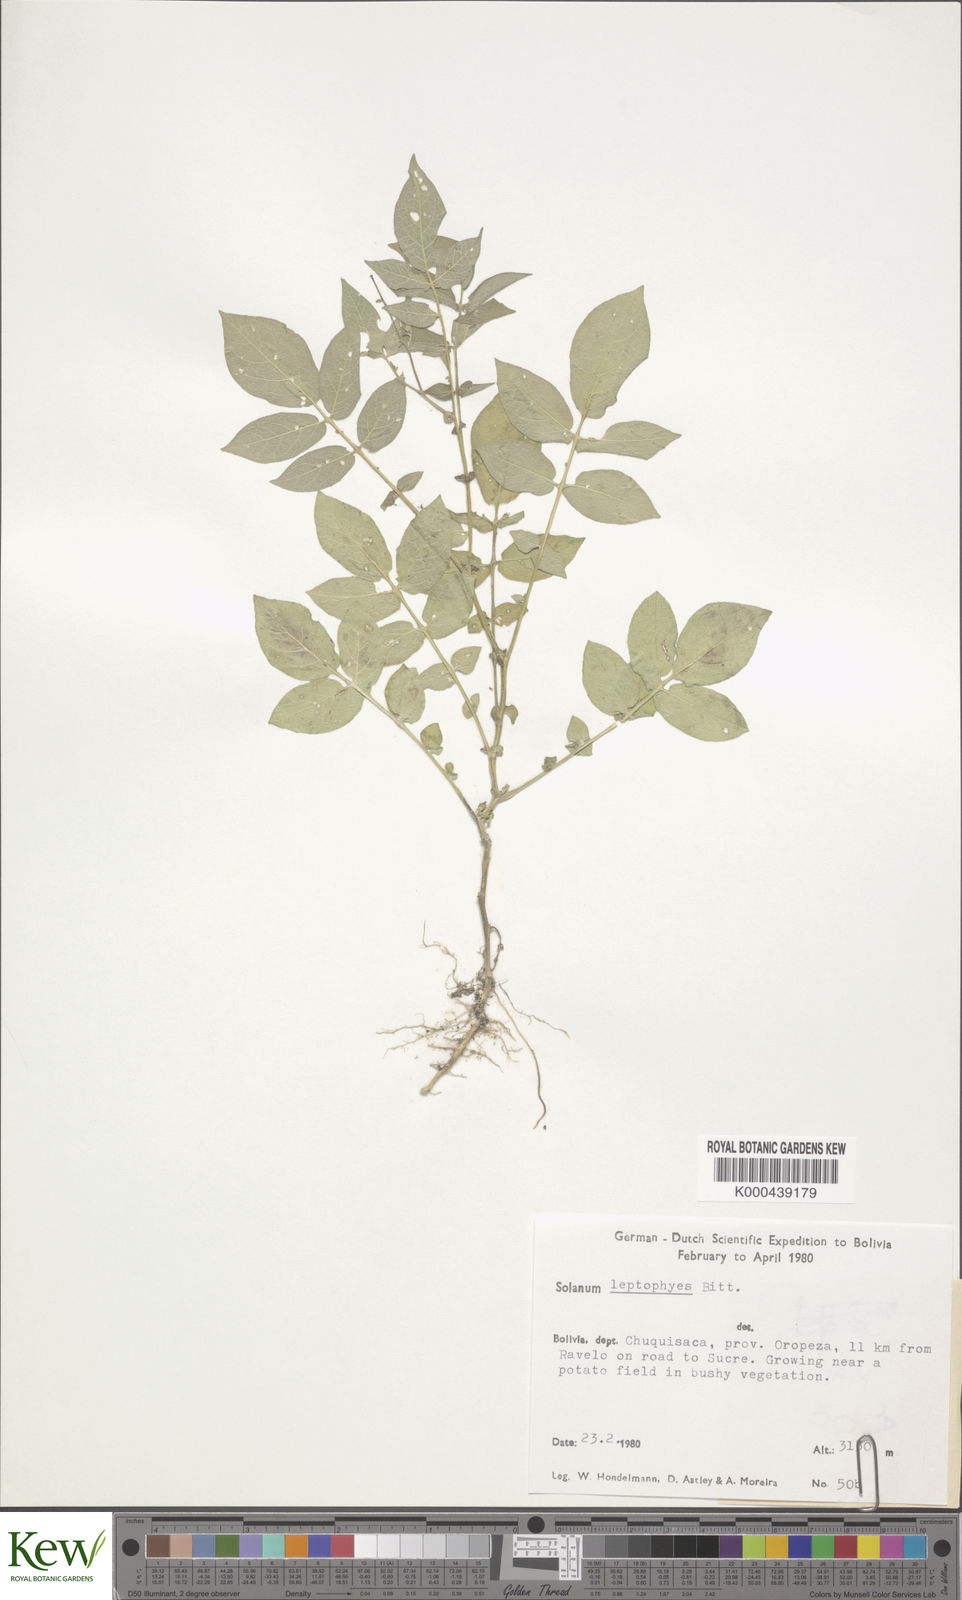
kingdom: Plantae
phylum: Tracheophyta
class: Magnoliopsida
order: Solanales
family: Solanaceae
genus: Solanum
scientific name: Solanum brevicaule
